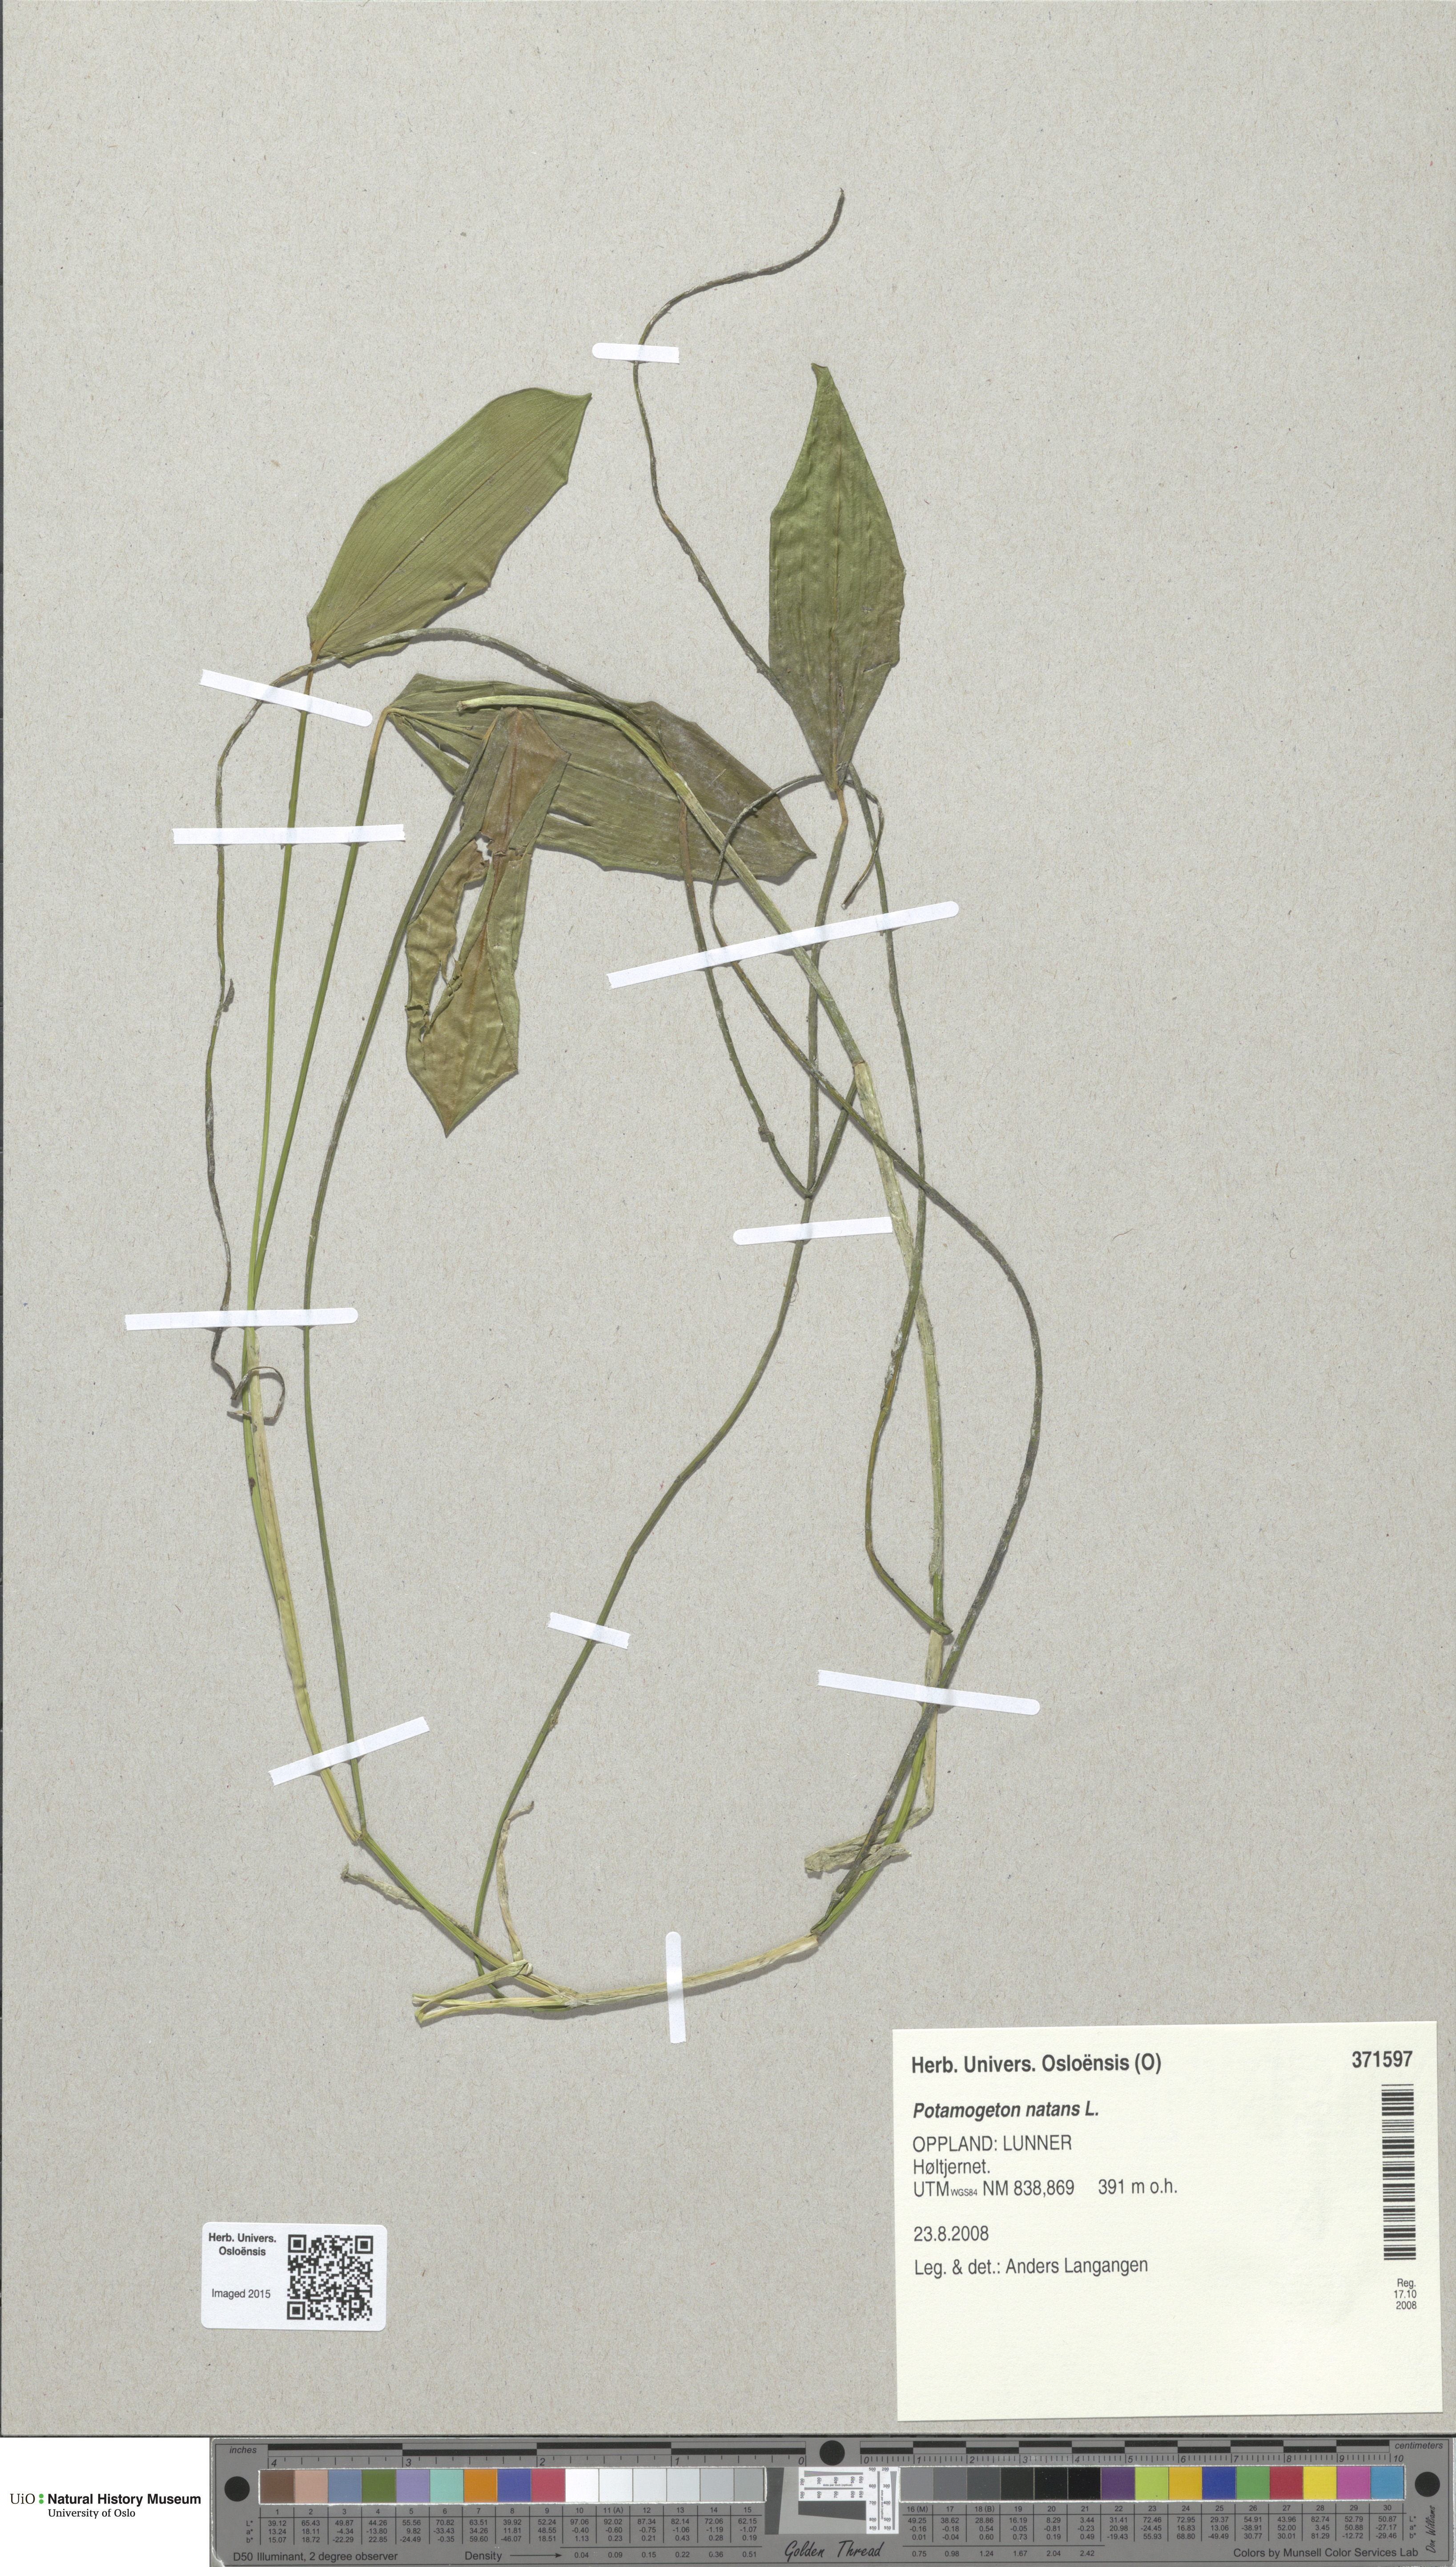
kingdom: Plantae
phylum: Tracheophyta
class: Liliopsida
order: Alismatales
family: Potamogetonaceae
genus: Potamogeton
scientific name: Potamogeton natans
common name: Broad-leaved pondweed
